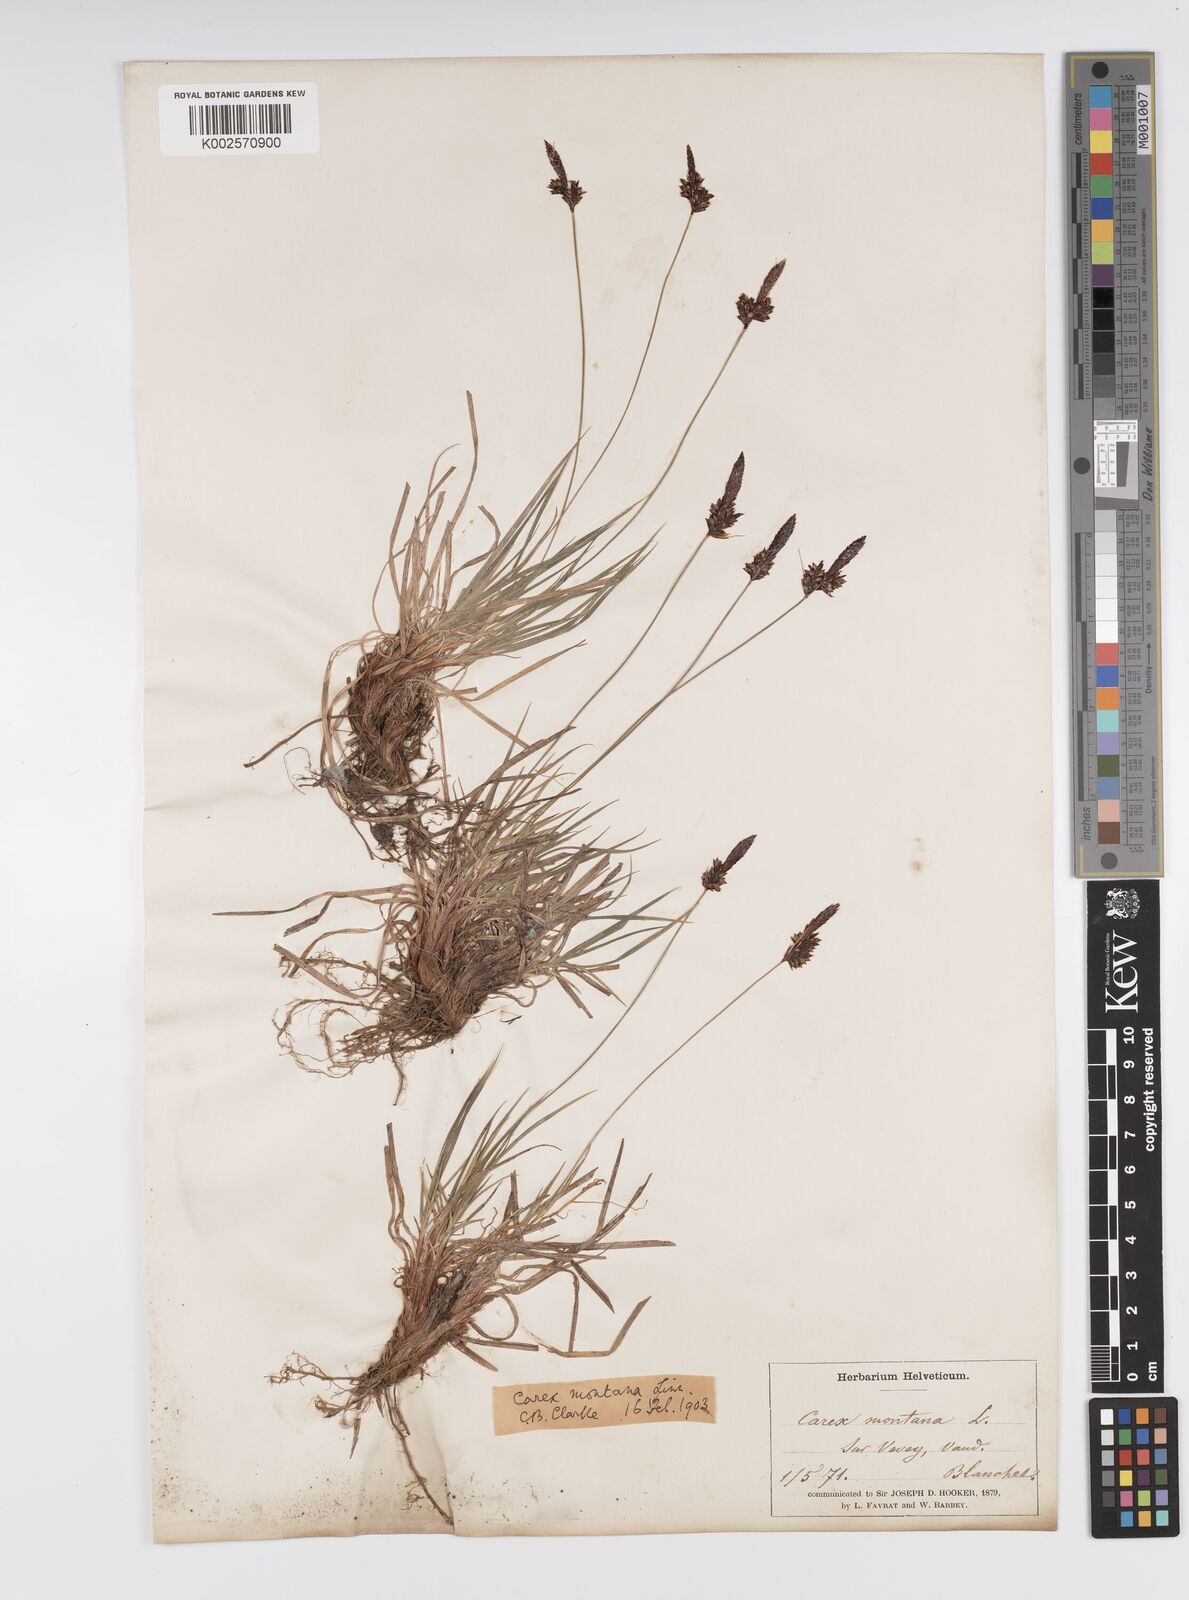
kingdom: Plantae
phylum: Tracheophyta
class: Liliopsida
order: Poales
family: Cyperaceae
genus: Carex
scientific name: Carex montana
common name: Soft-leaved sedge
